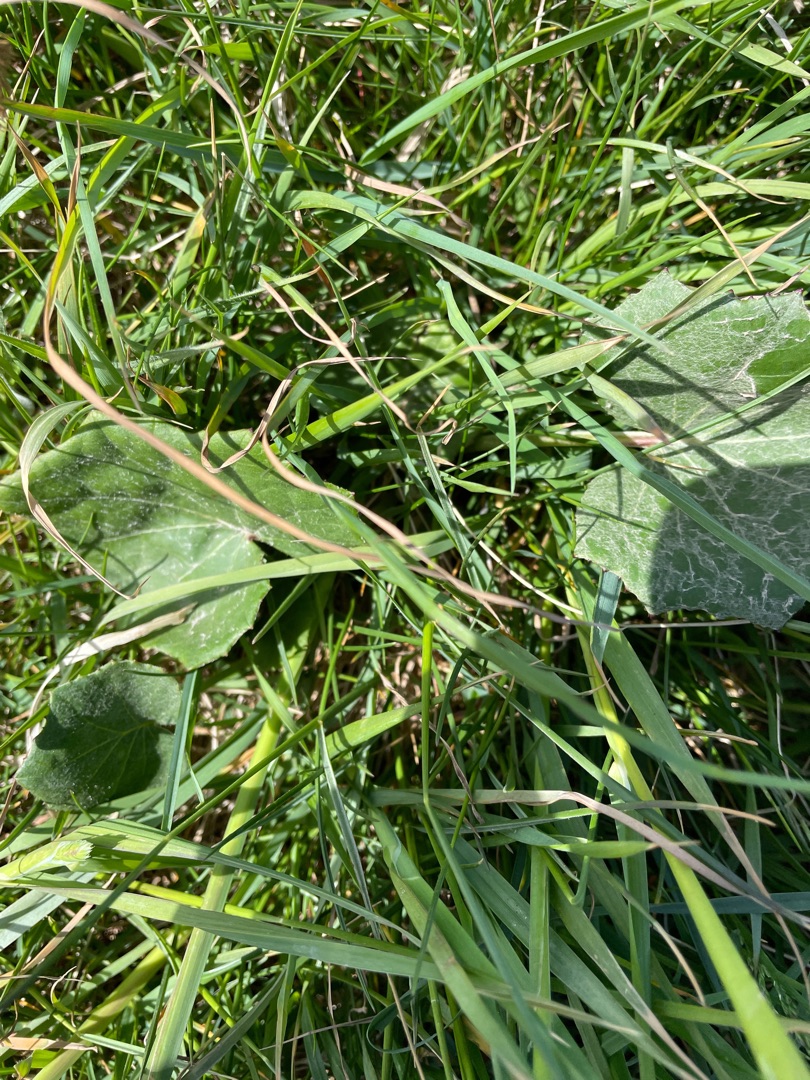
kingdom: Plantae
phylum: Tracheophyta
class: Magnoliopsida
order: Asterales
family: Asteraceae
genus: Tussilago
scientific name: Tussilago farfara
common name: Følfod
